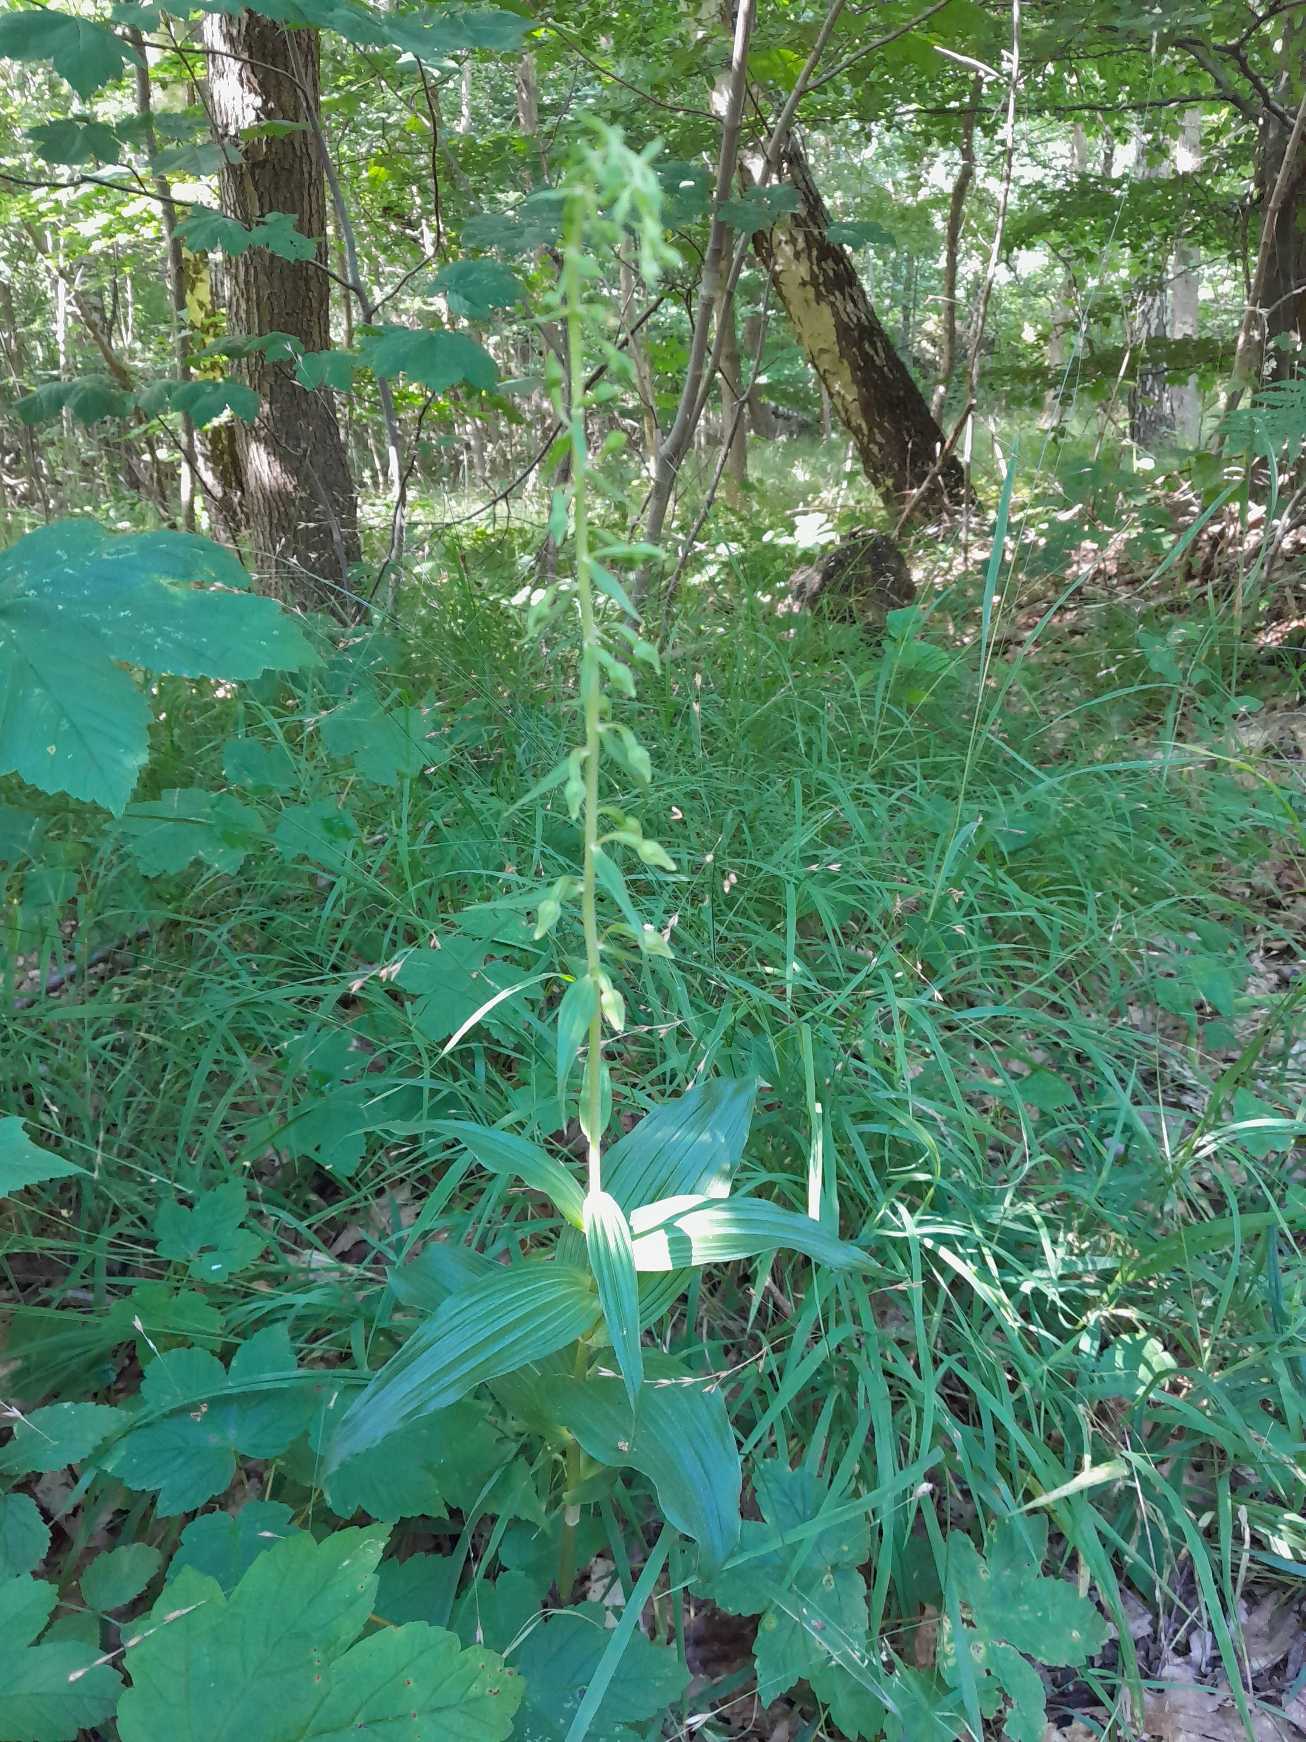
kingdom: Plantae
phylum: Tracheophyta
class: Liliopsida
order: Asparagales
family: Orchidaceae
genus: Epipactis
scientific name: Epipactis helleborine
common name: Skov-hullæbe
